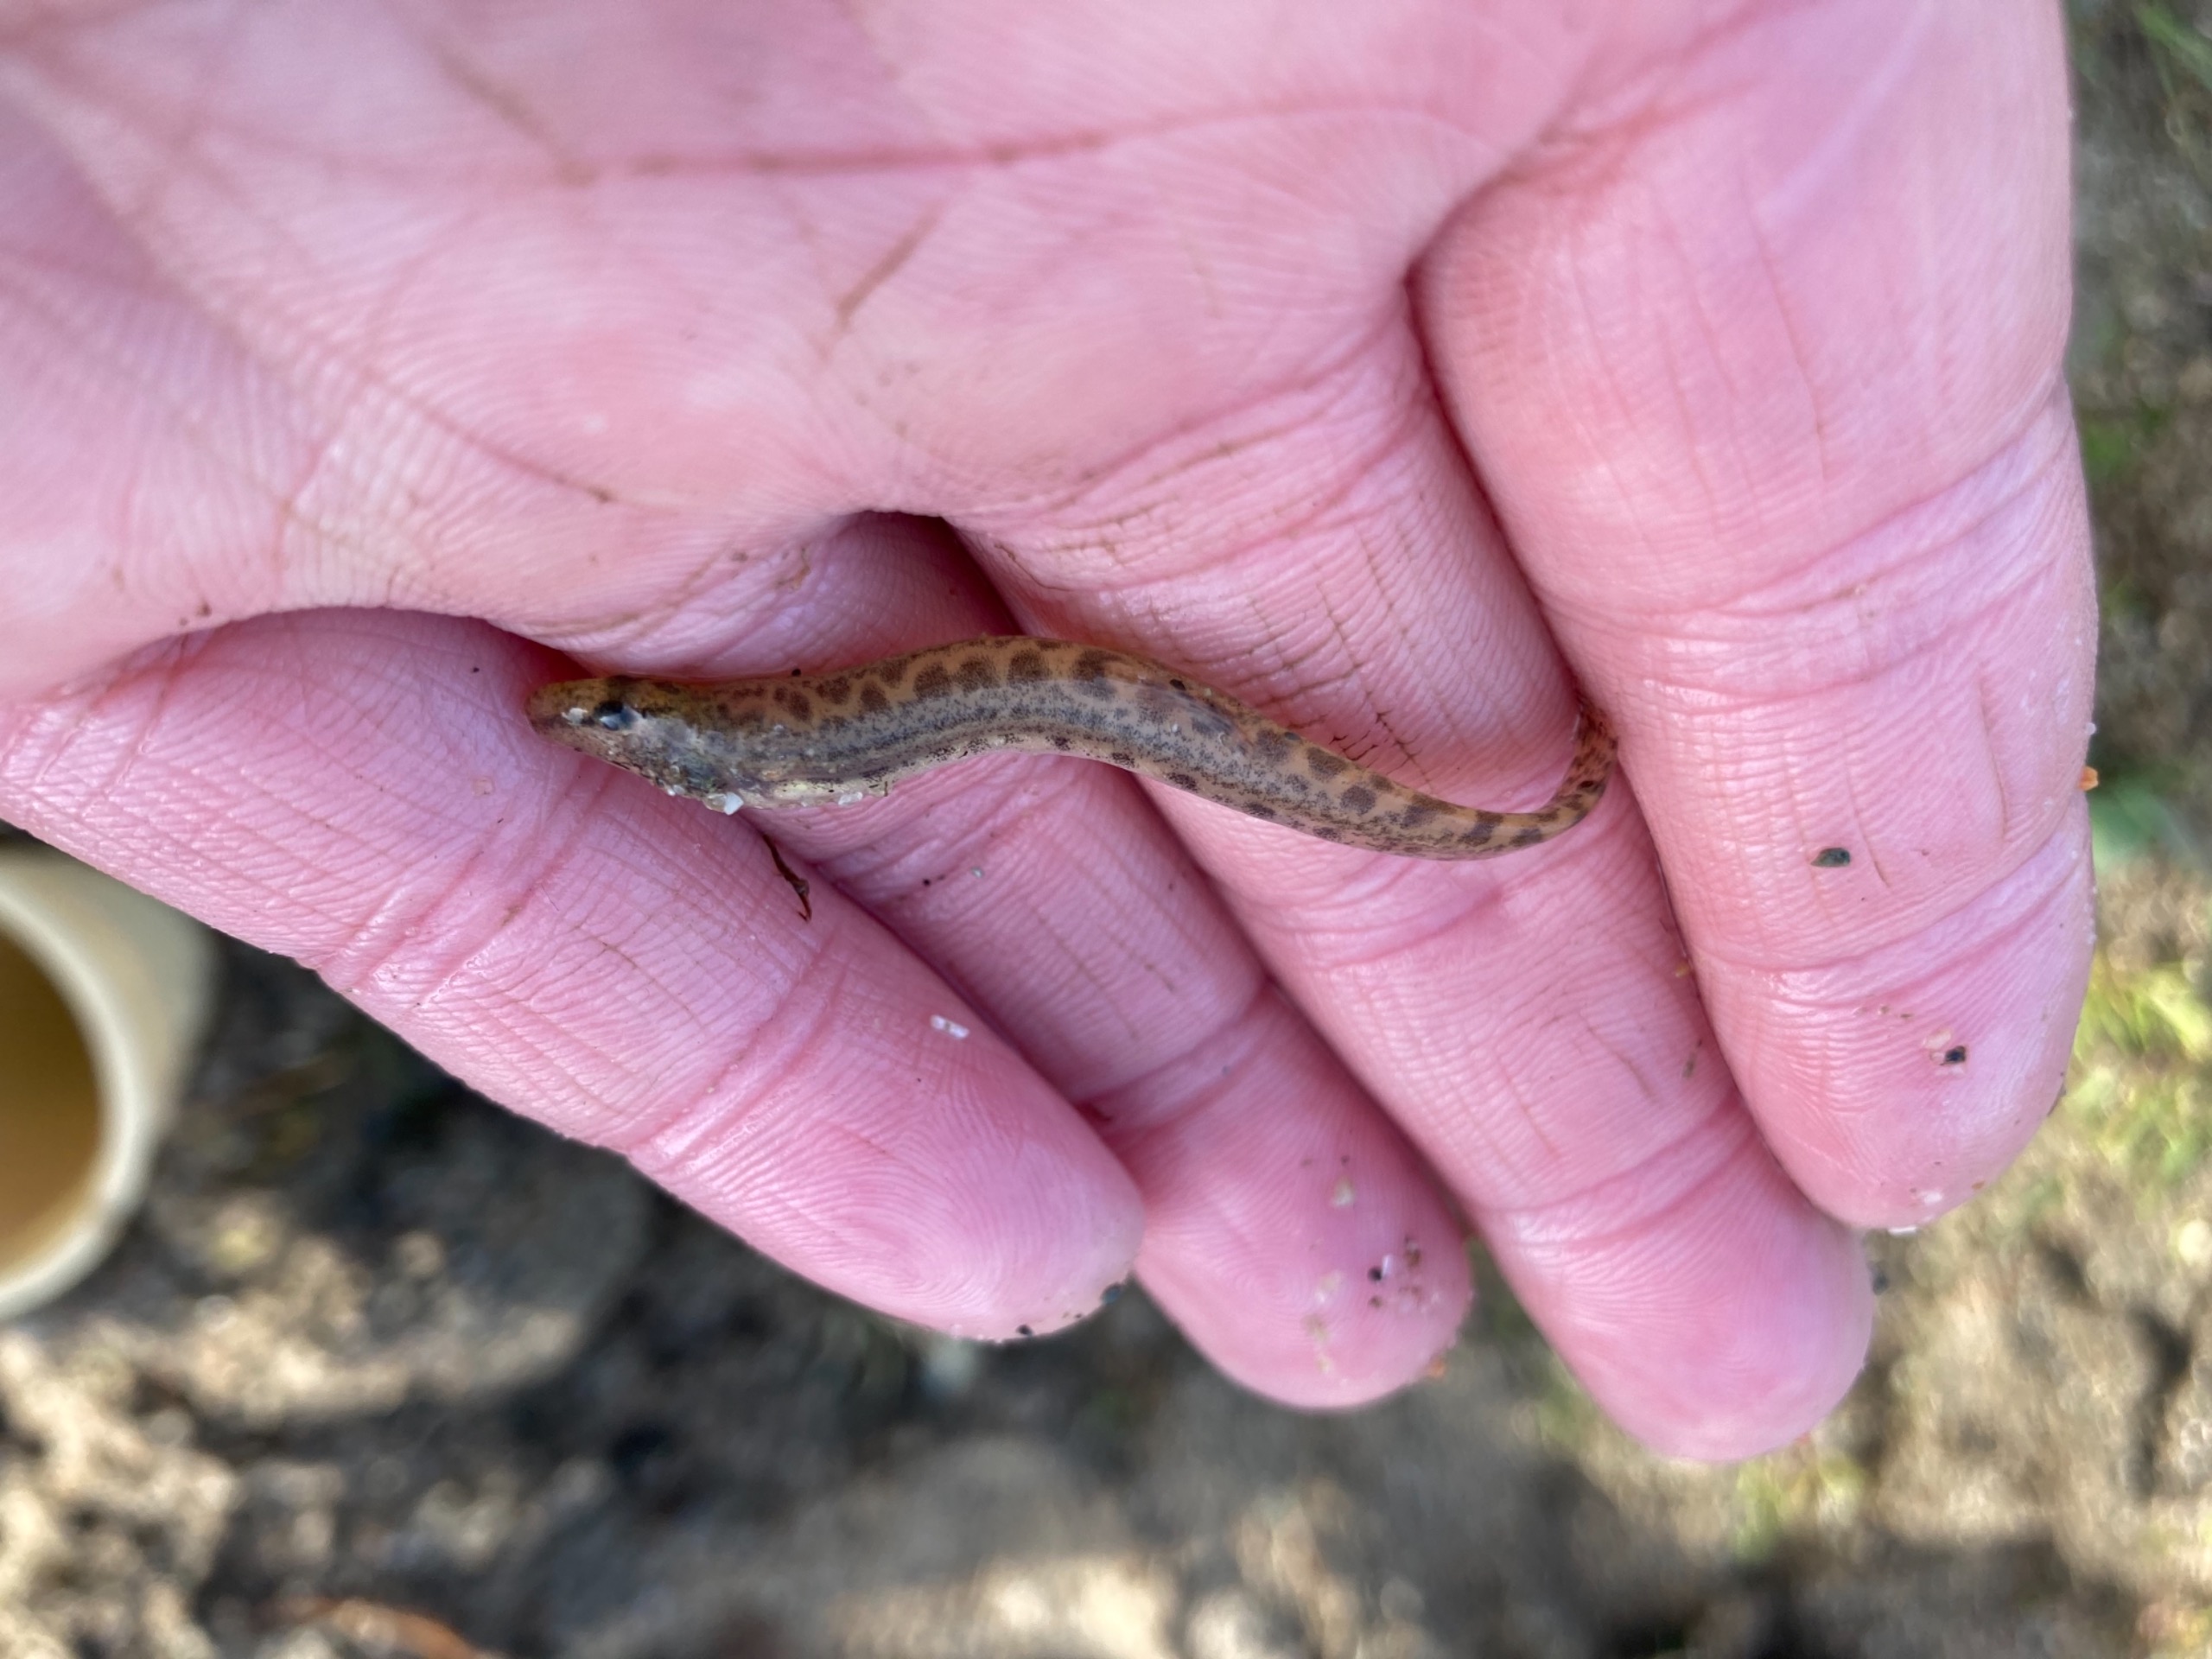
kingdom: Animalia
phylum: Chordata
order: Cypriniformes
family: Cobitidae
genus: Cobitis
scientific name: Cobitis taenia
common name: Pigsmerling
